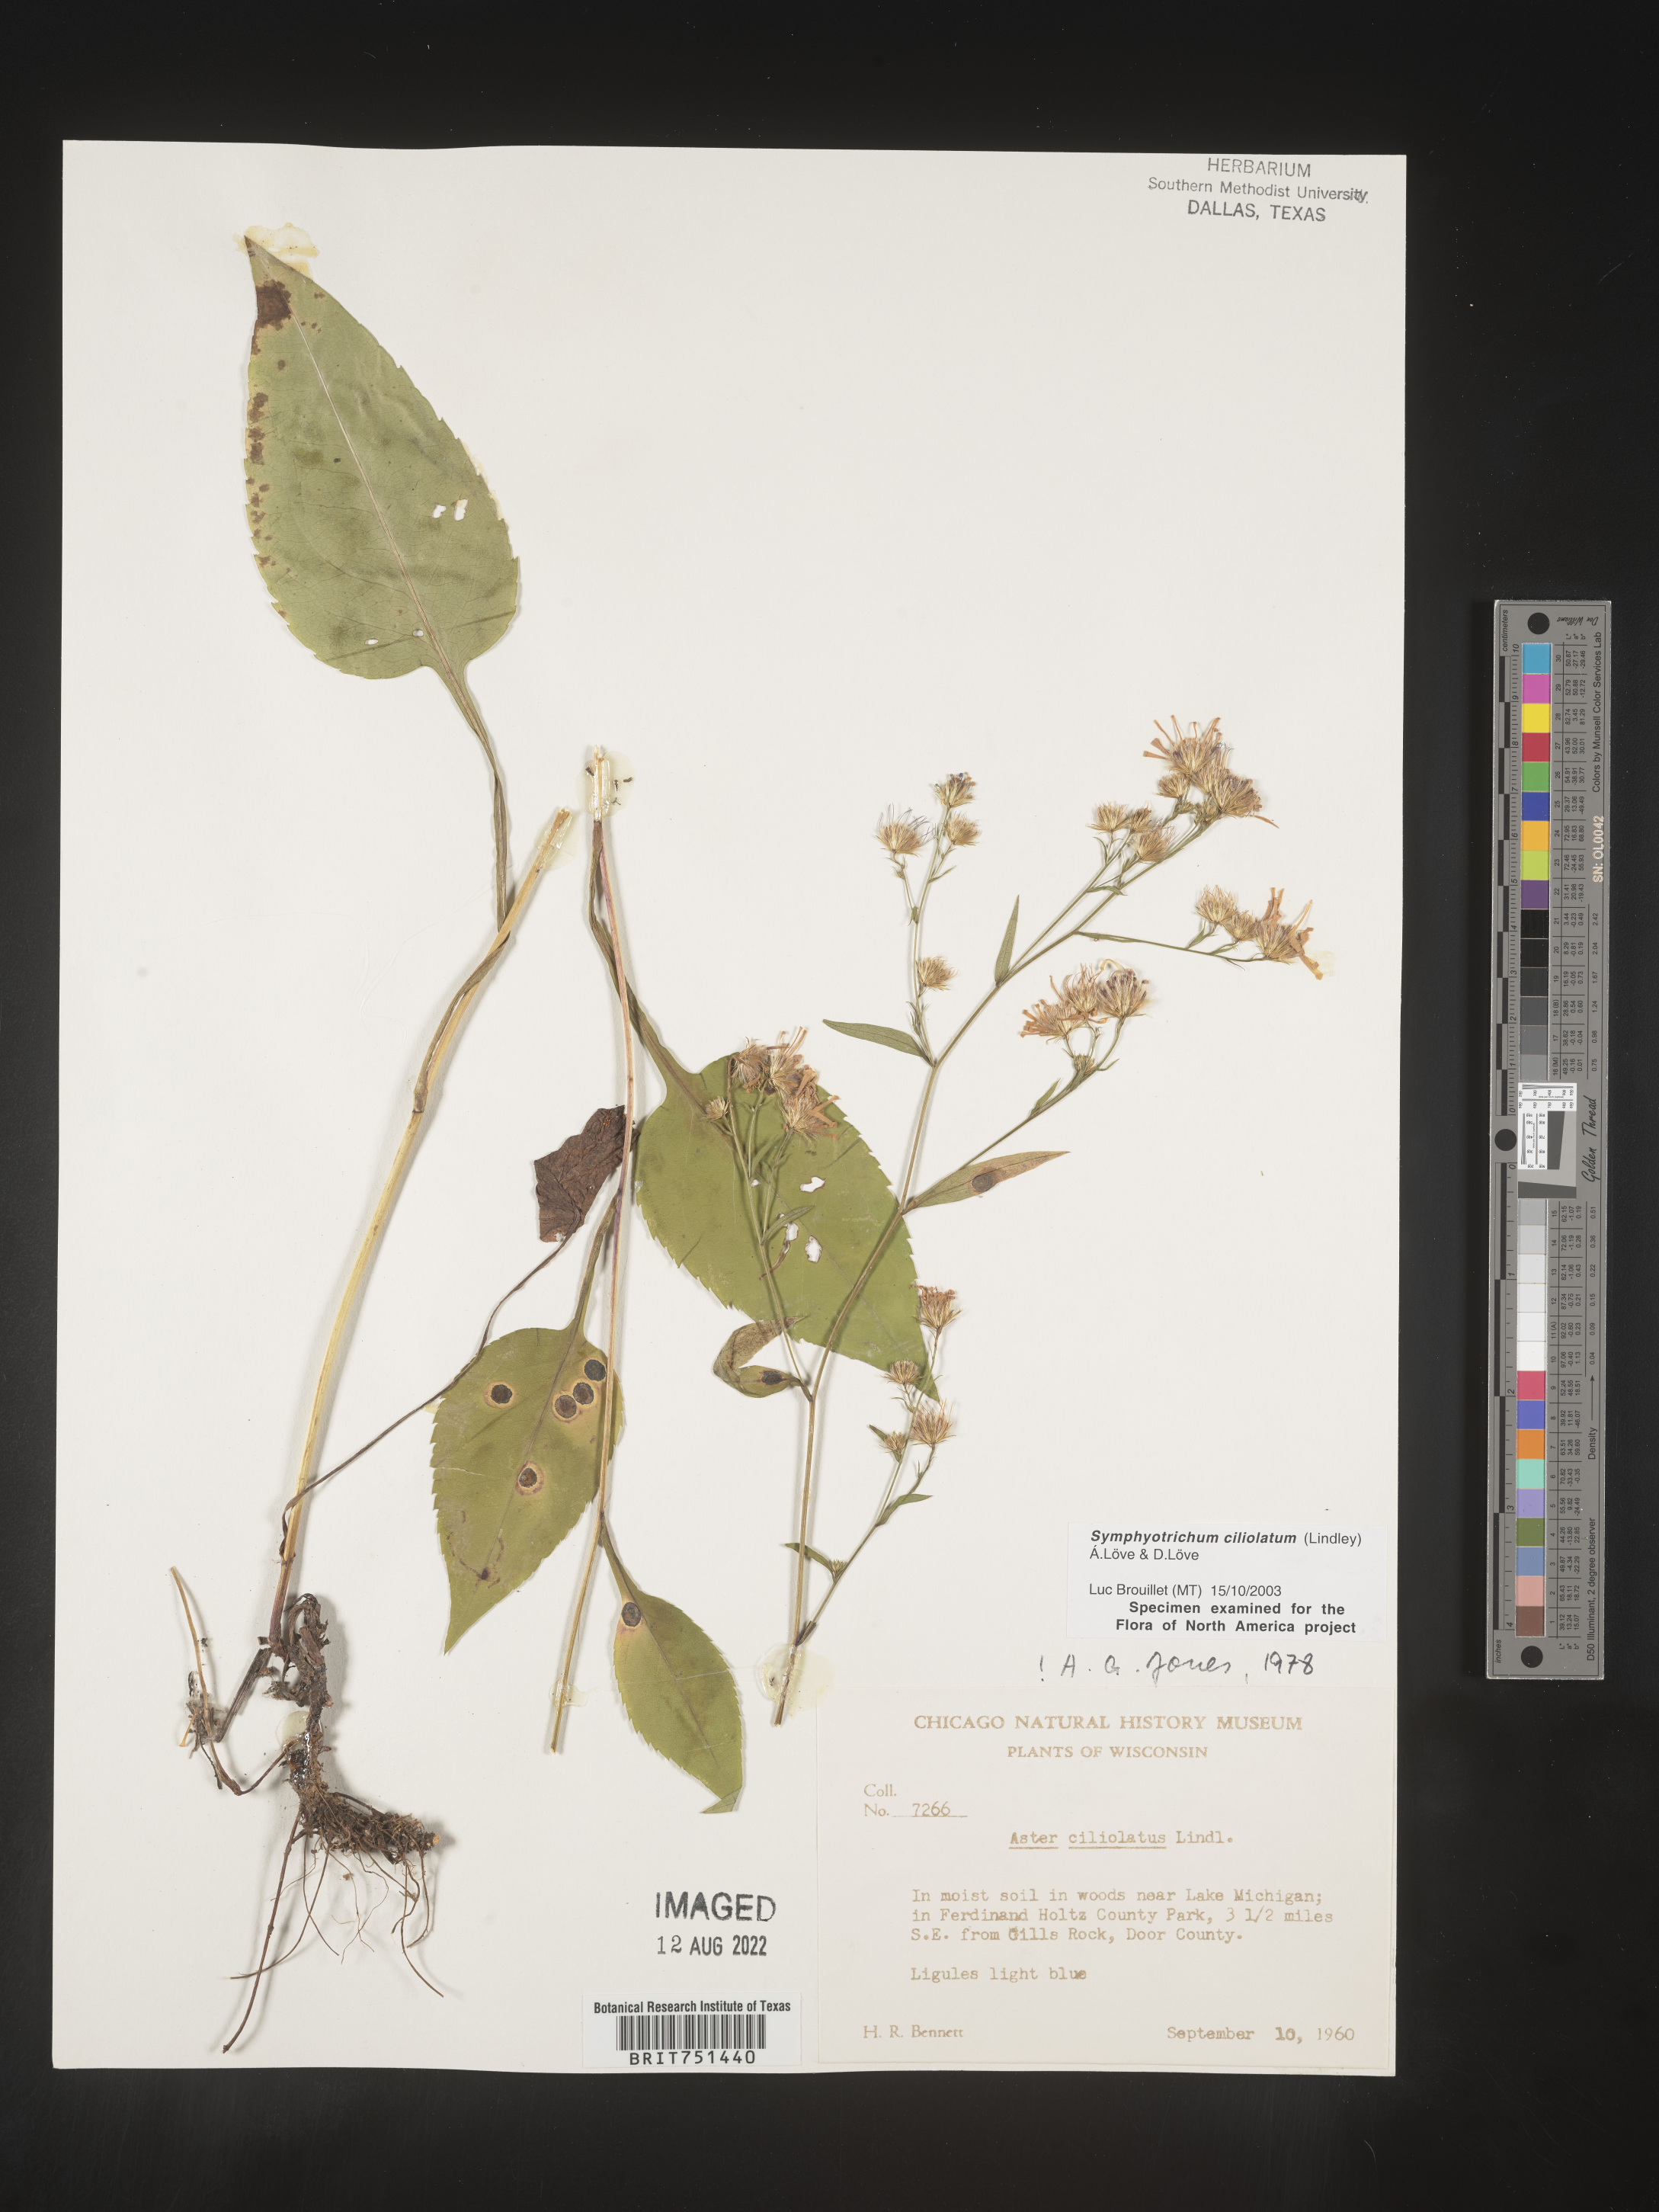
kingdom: Plantae
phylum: Tracheophyta
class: Magnoliopsida
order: Asterales
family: Asteraceae
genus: Symphyotrichum
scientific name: Symphyotrichum ciliolatum
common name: Fringed blue aster
